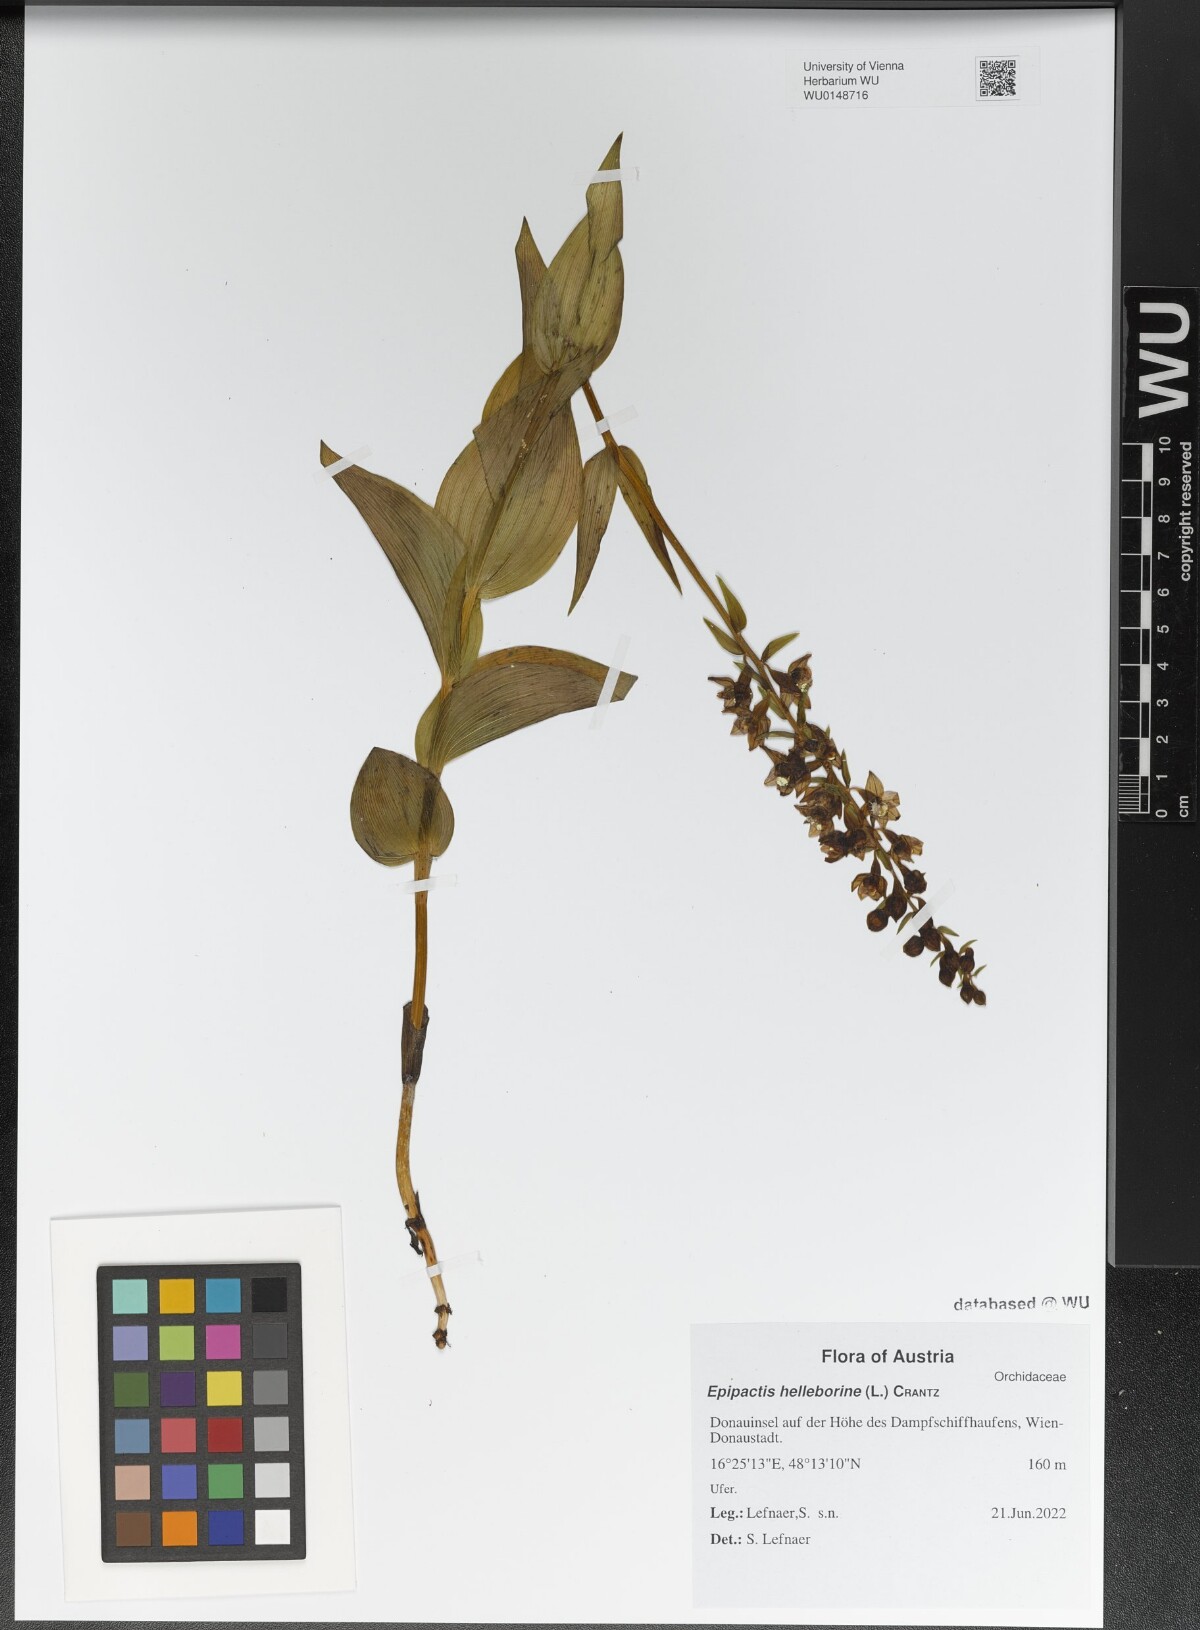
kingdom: Plantae
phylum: Tracheophyta
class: Liliopsida
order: Asparagales
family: Orchidaceae
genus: Epipactis
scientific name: Epipactis helleborine
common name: Broad-leaved helleborine
